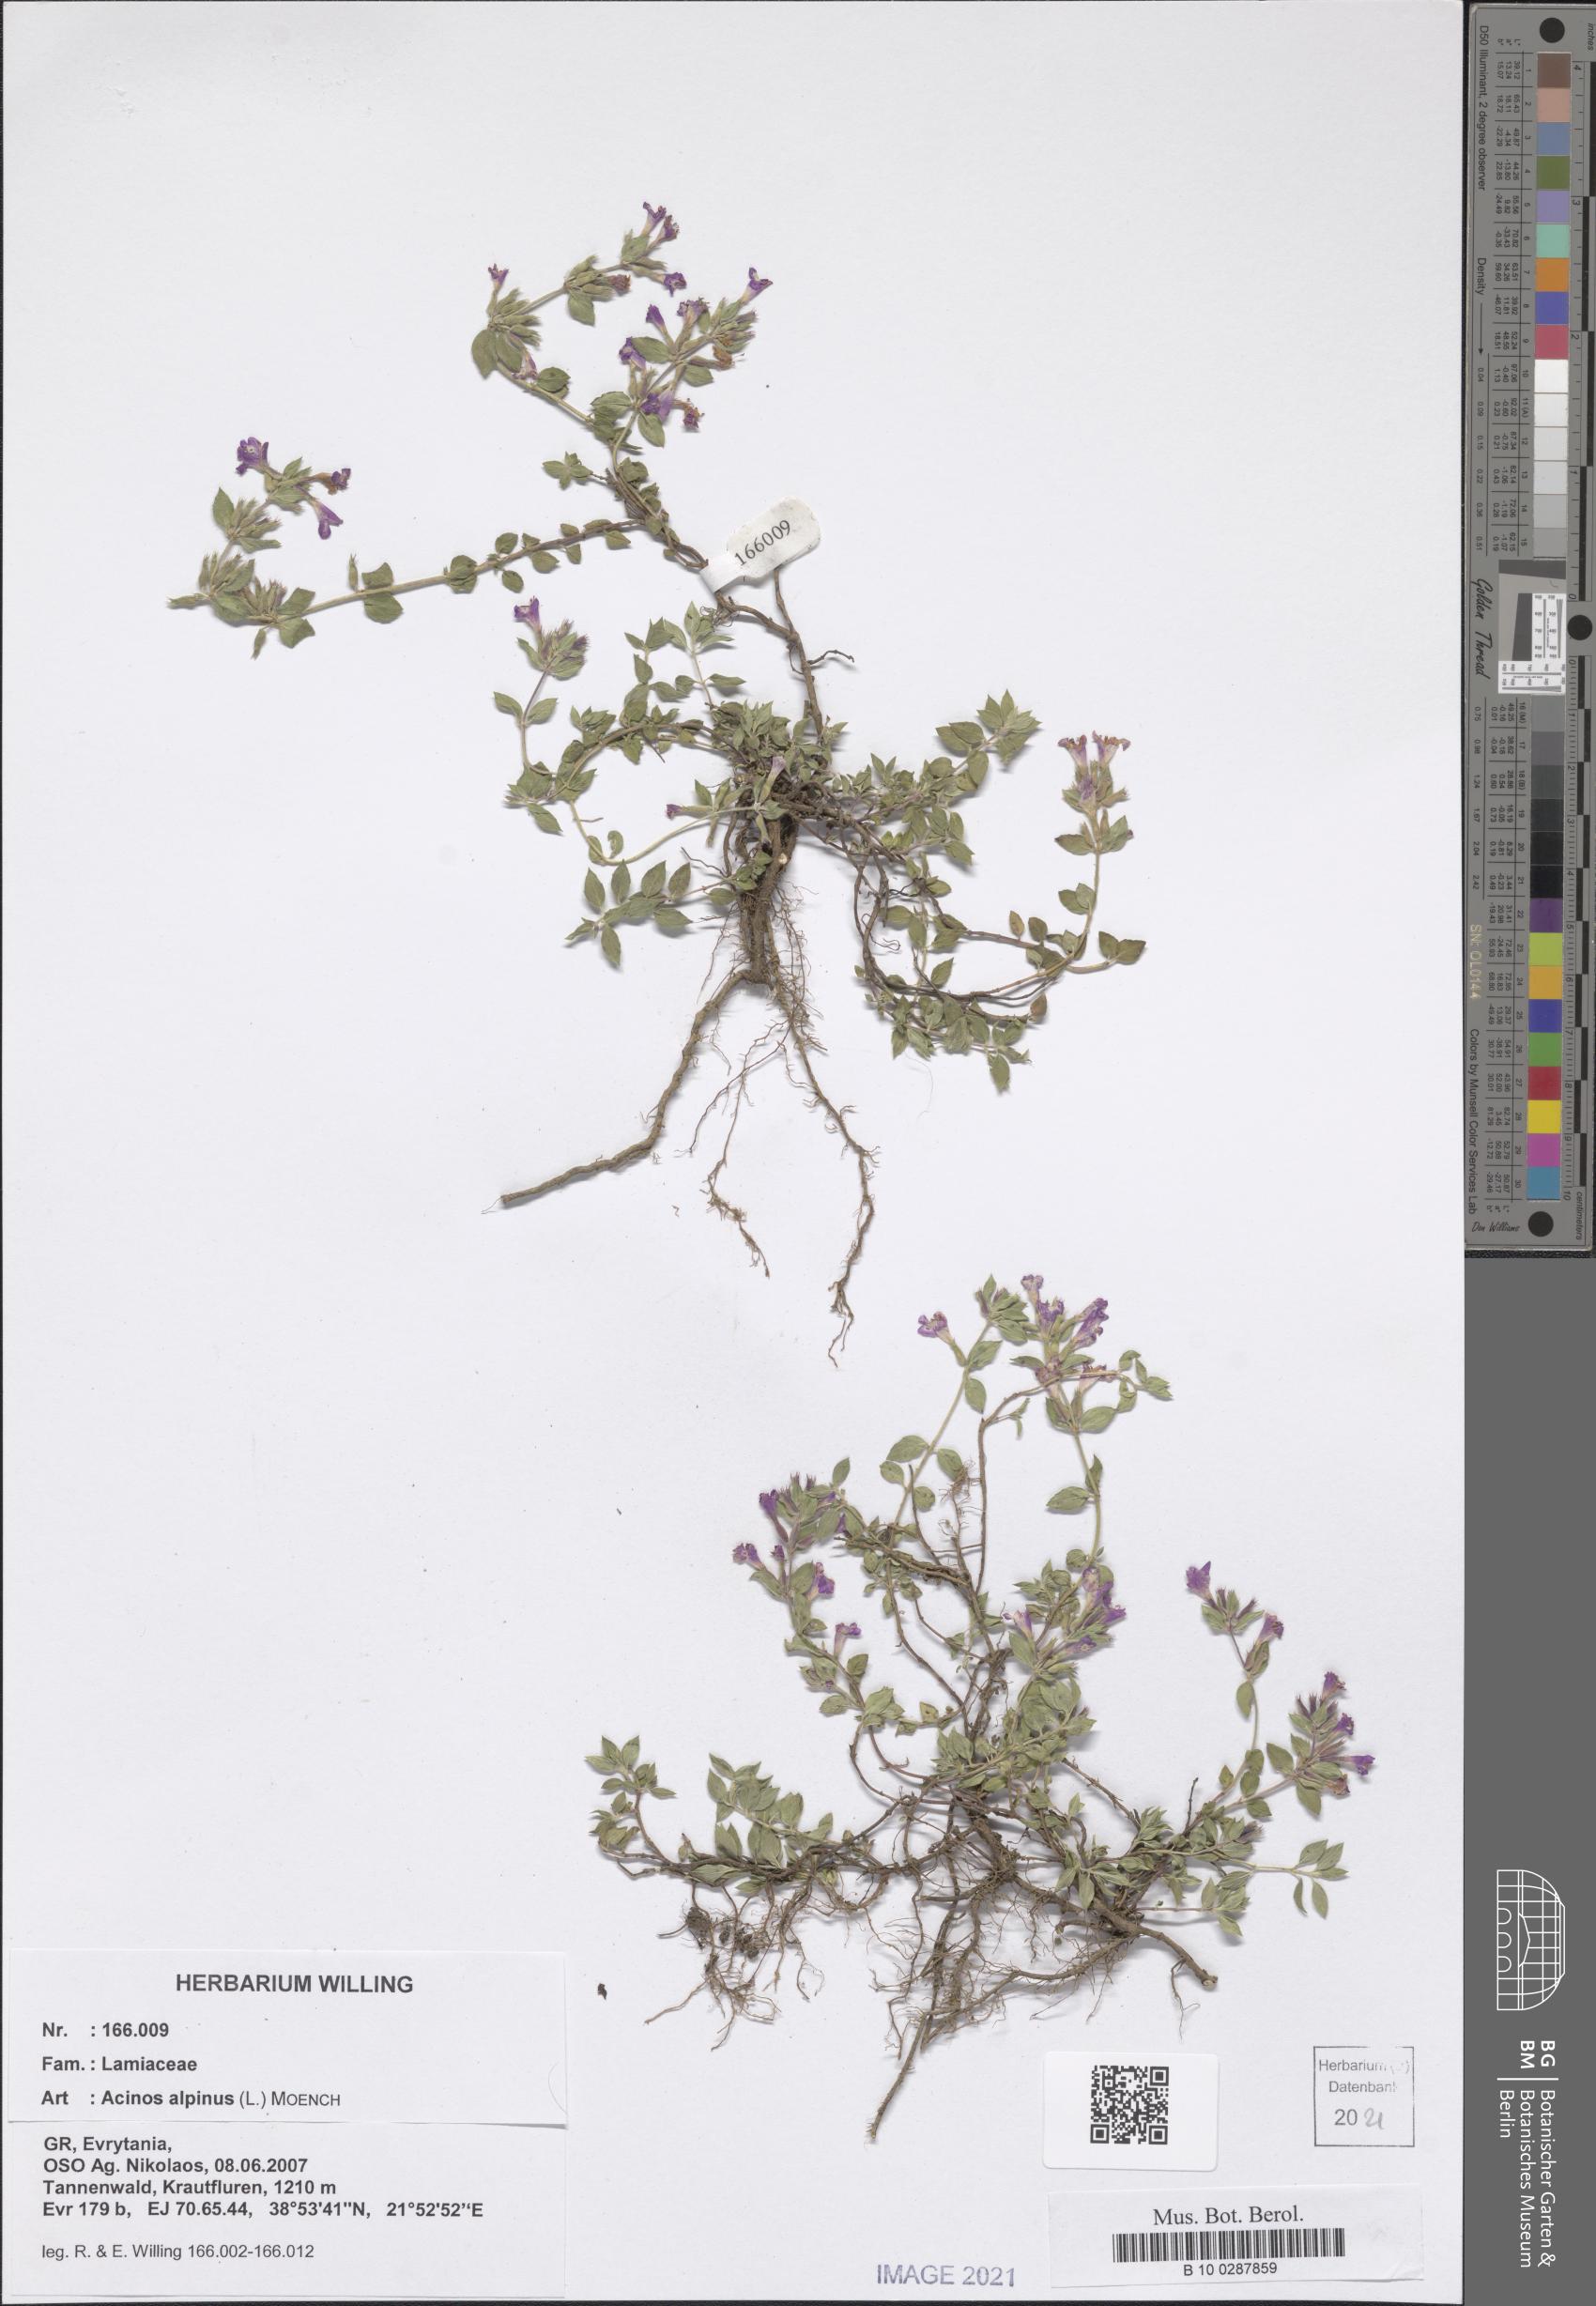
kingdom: Plantae
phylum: Tracheophyta
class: Magnoliopsida
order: Lamiales
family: Lamiaceae
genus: Clinopodium
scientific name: Clinopodium alpinum
